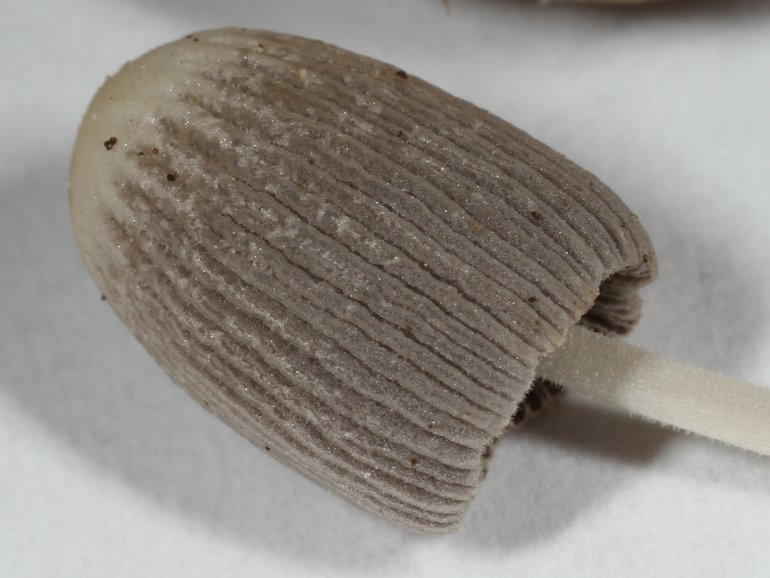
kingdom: Fungi
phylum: Basidiomycota
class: Agaricomycetes
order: Agaricales
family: Psathyrellaceae
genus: Tulosesus
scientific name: Tulosesus bisporus
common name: tosporet blækhat
